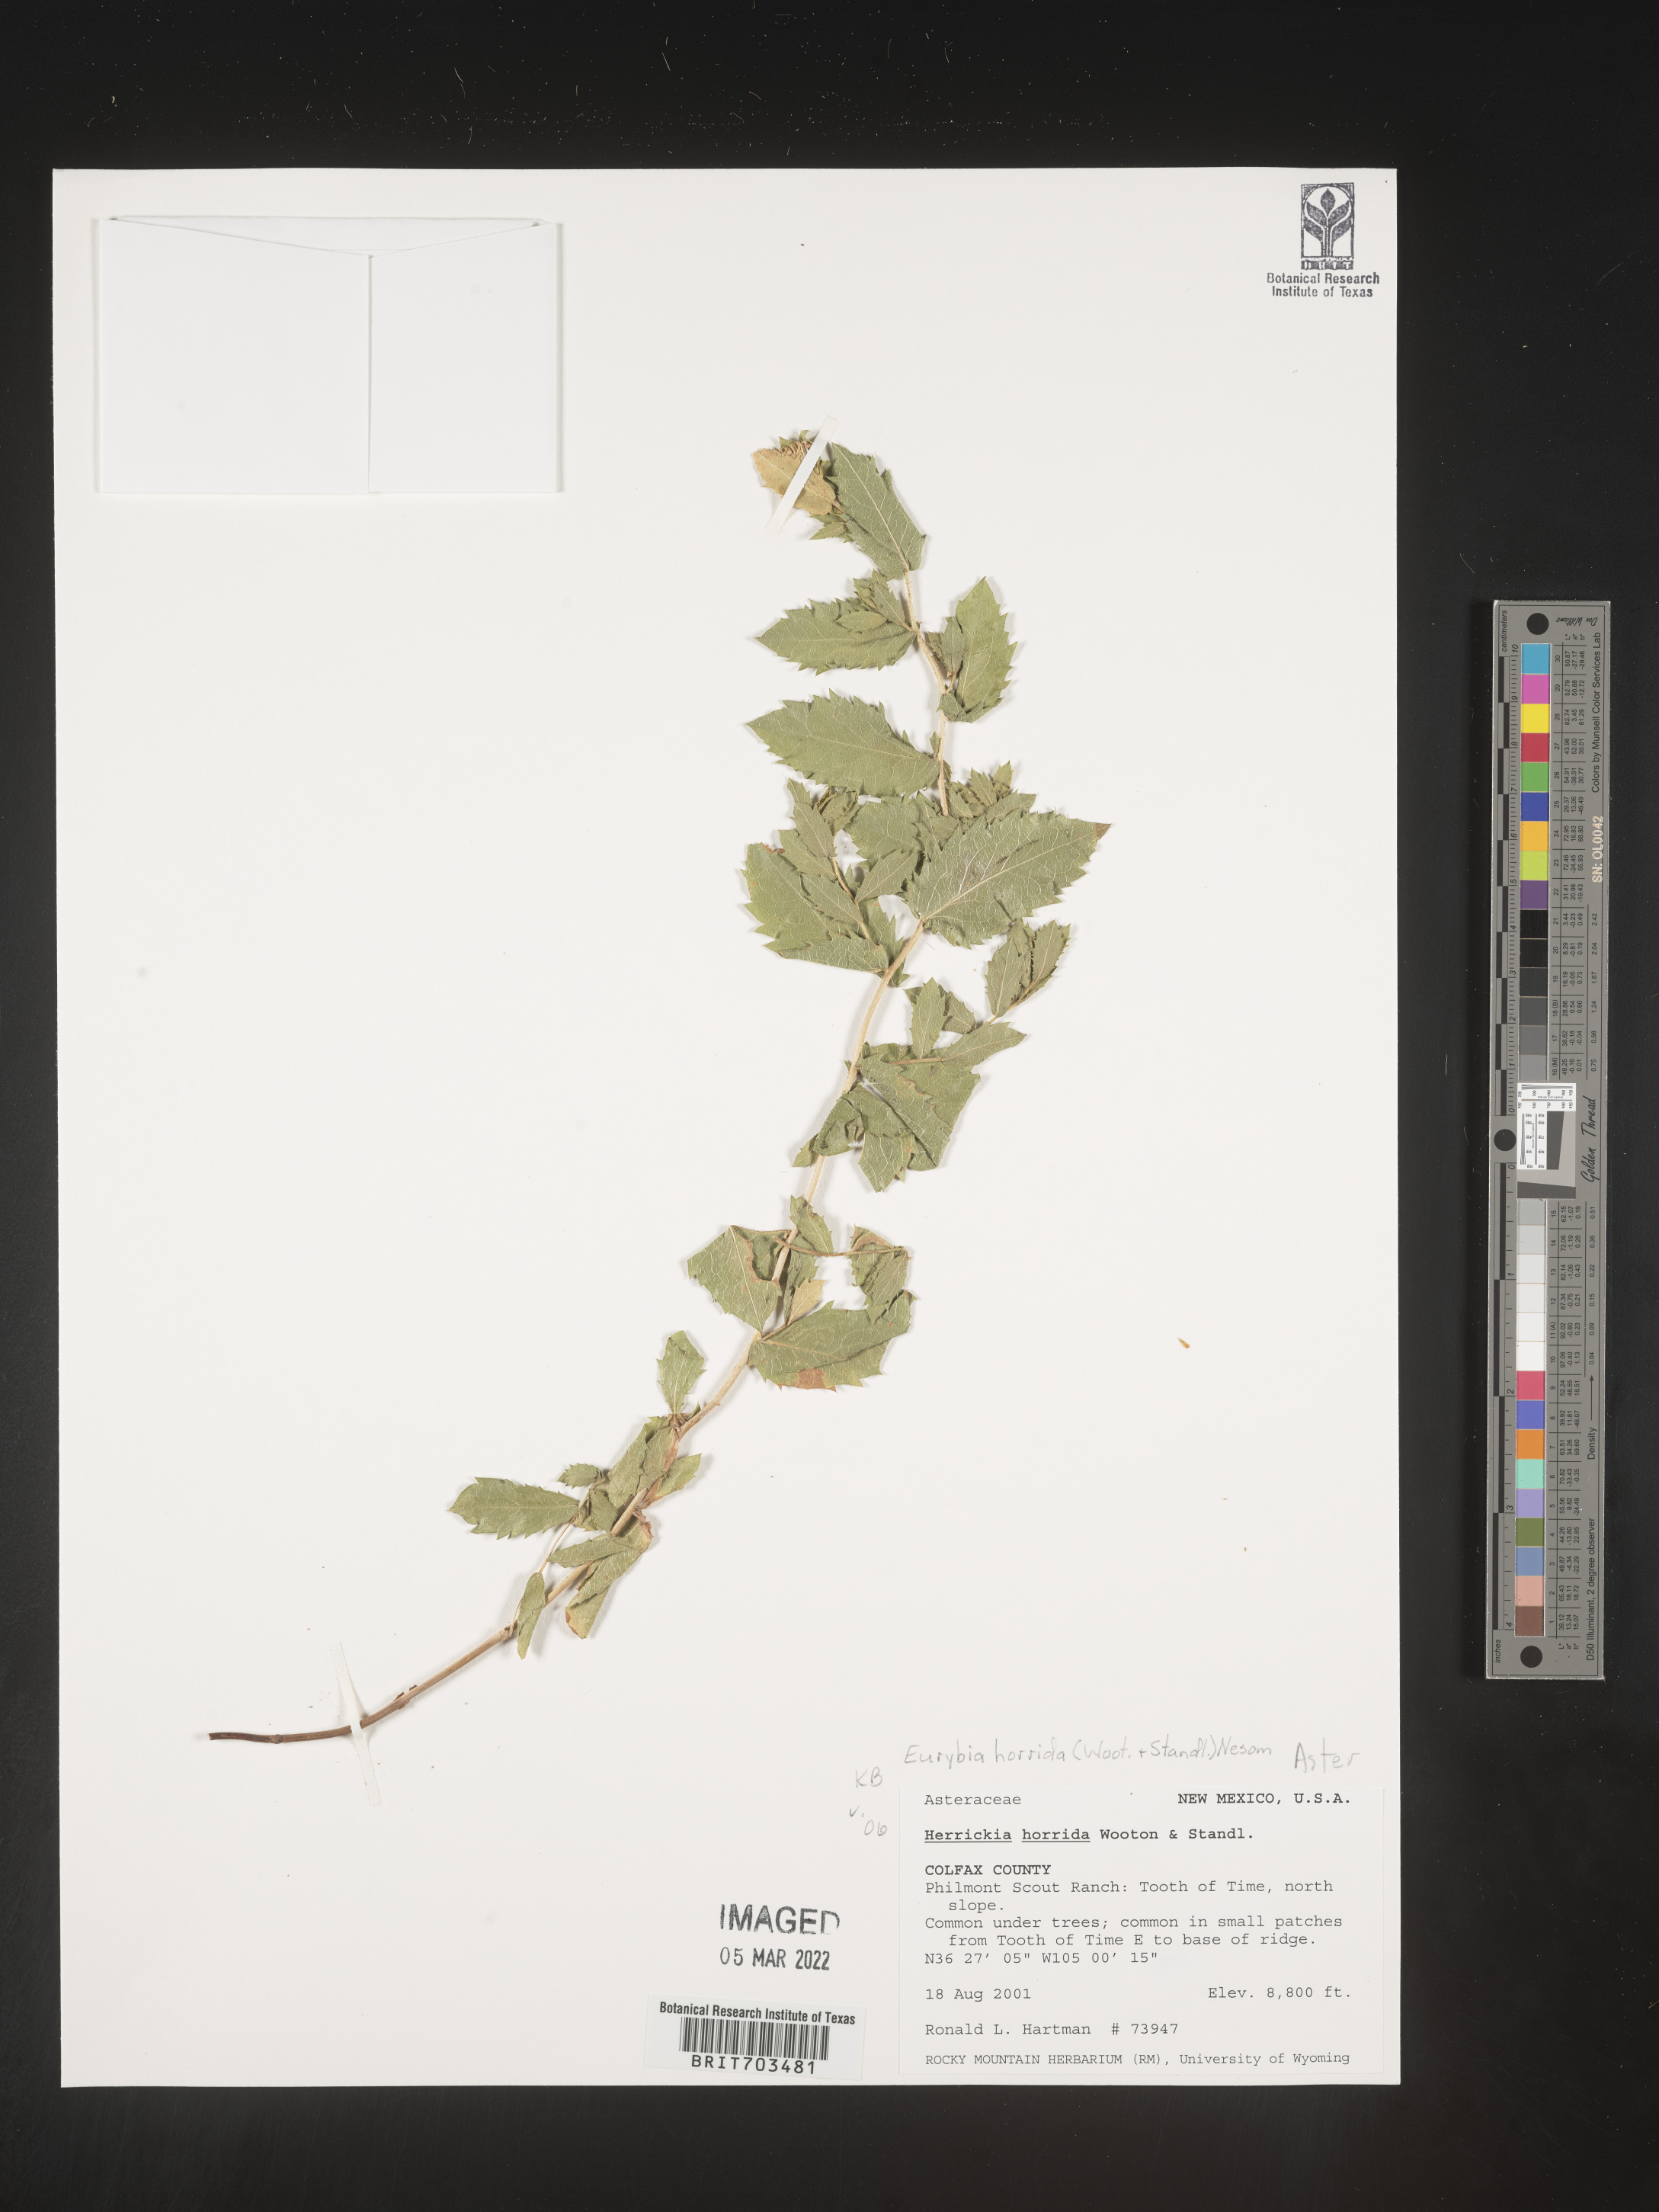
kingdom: Plantae
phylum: Tracheophyta
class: Magnoliopsida
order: Asterales
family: Asteraceae
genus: Eurybia
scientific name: Eurybia horrida
